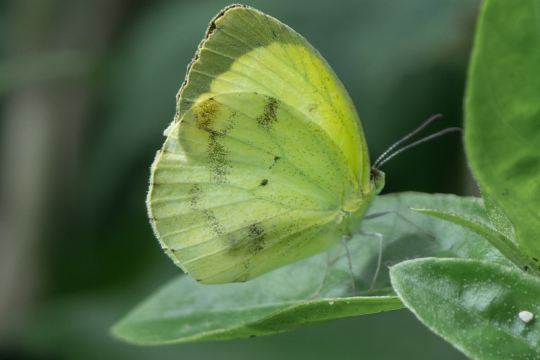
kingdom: Animalia
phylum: Arthropoda
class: Insecta
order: Lepidoptera
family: Pieridae
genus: Pyrisitia
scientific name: Pyrisitia nise
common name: Mimosa Yellow
